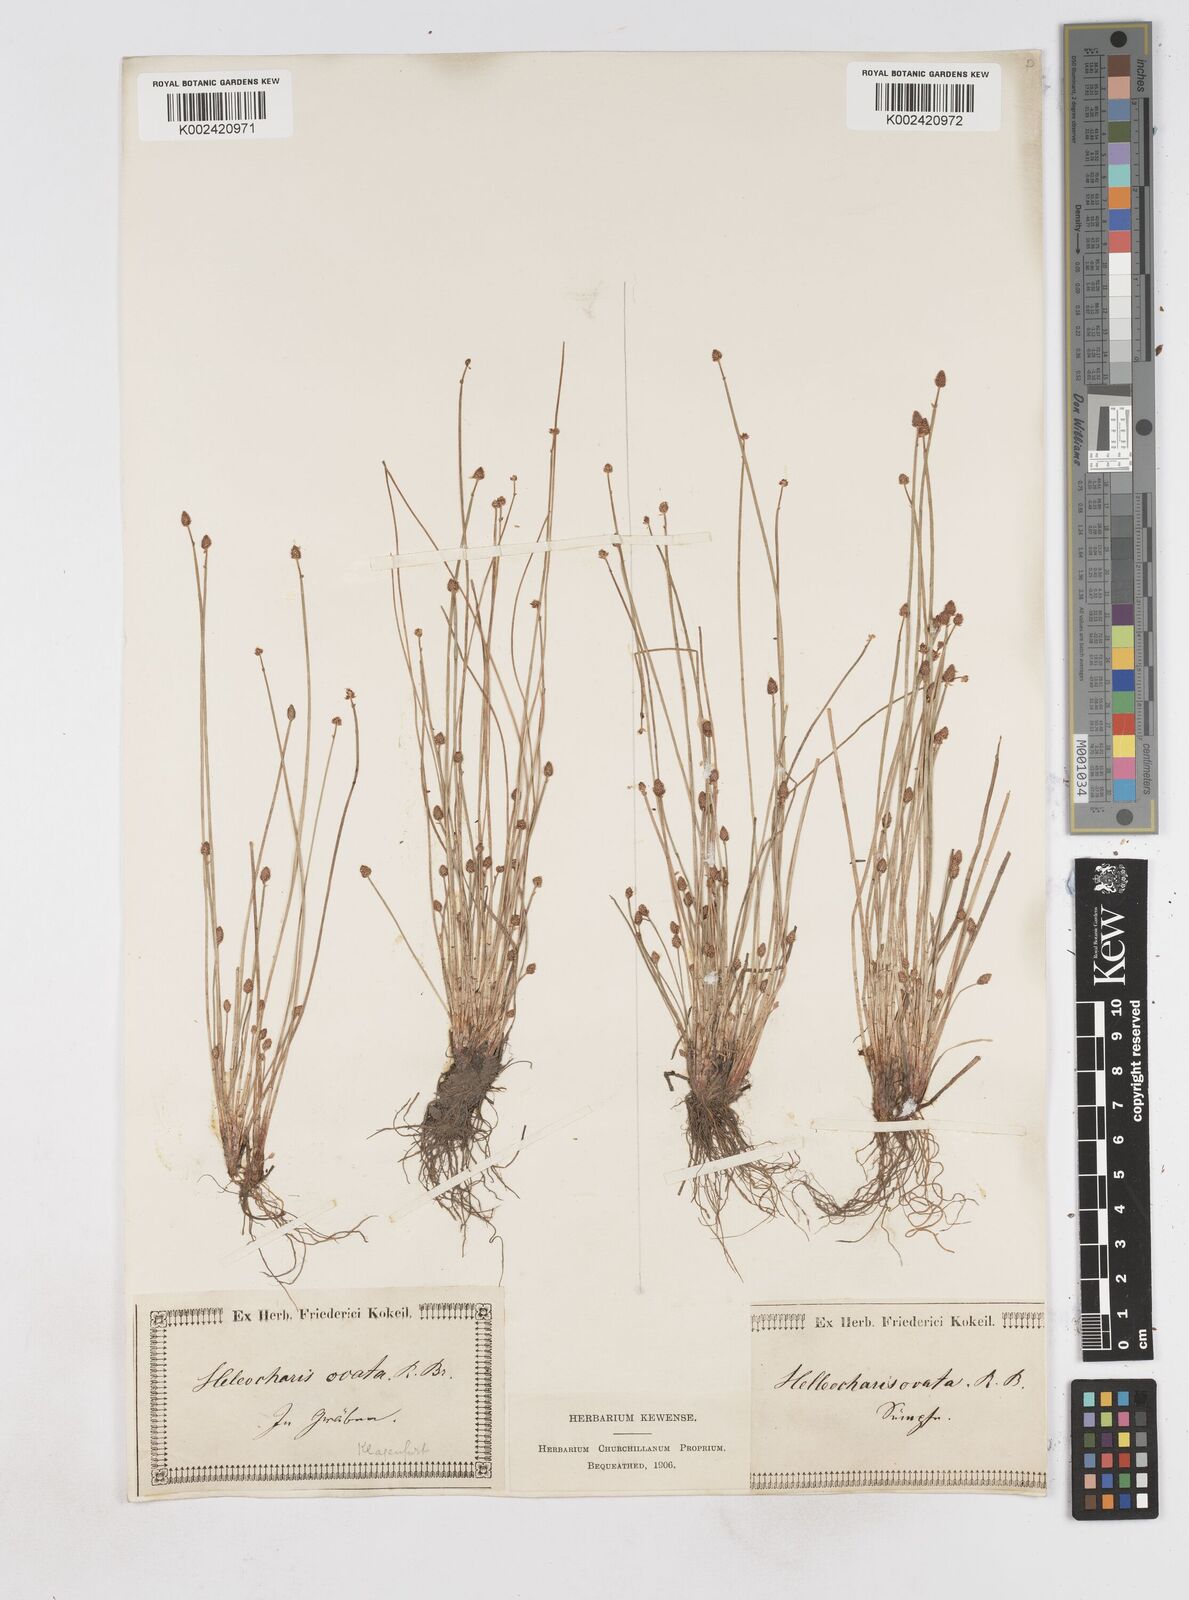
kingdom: Plantae
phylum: Tracheophyta
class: Liliopsida
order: Poales
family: Cyperaceae
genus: Eleocharis
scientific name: Eleocharis ovata
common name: Oval spike-rush
